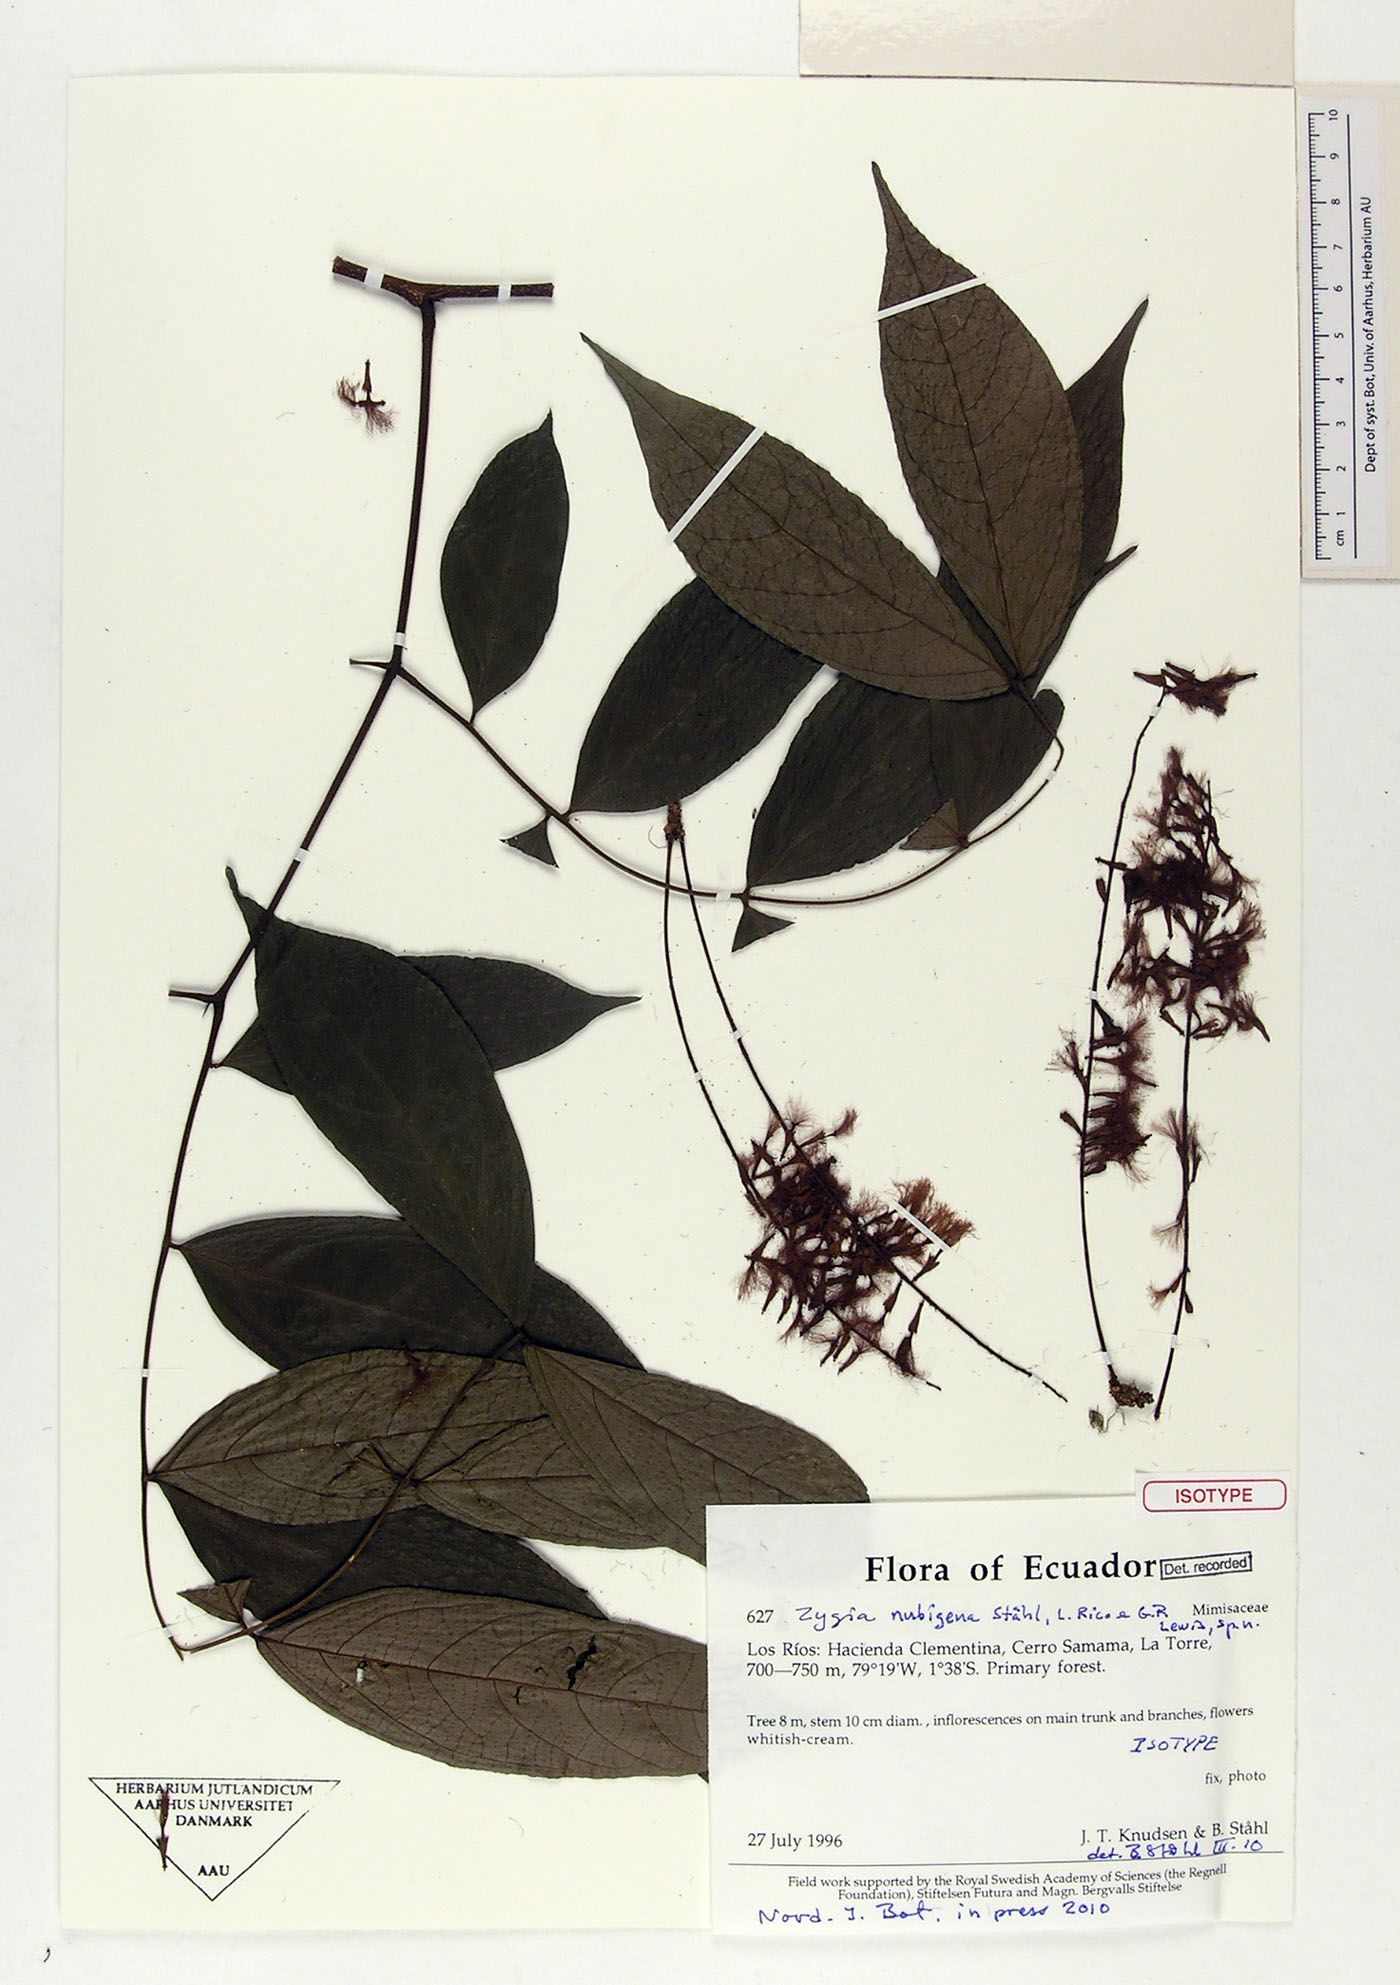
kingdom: Plantae
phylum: Tracheophyta
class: Magnoliopsida
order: Fabales
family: Fabaceae
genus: Zygia
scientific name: Zygia nubigena
